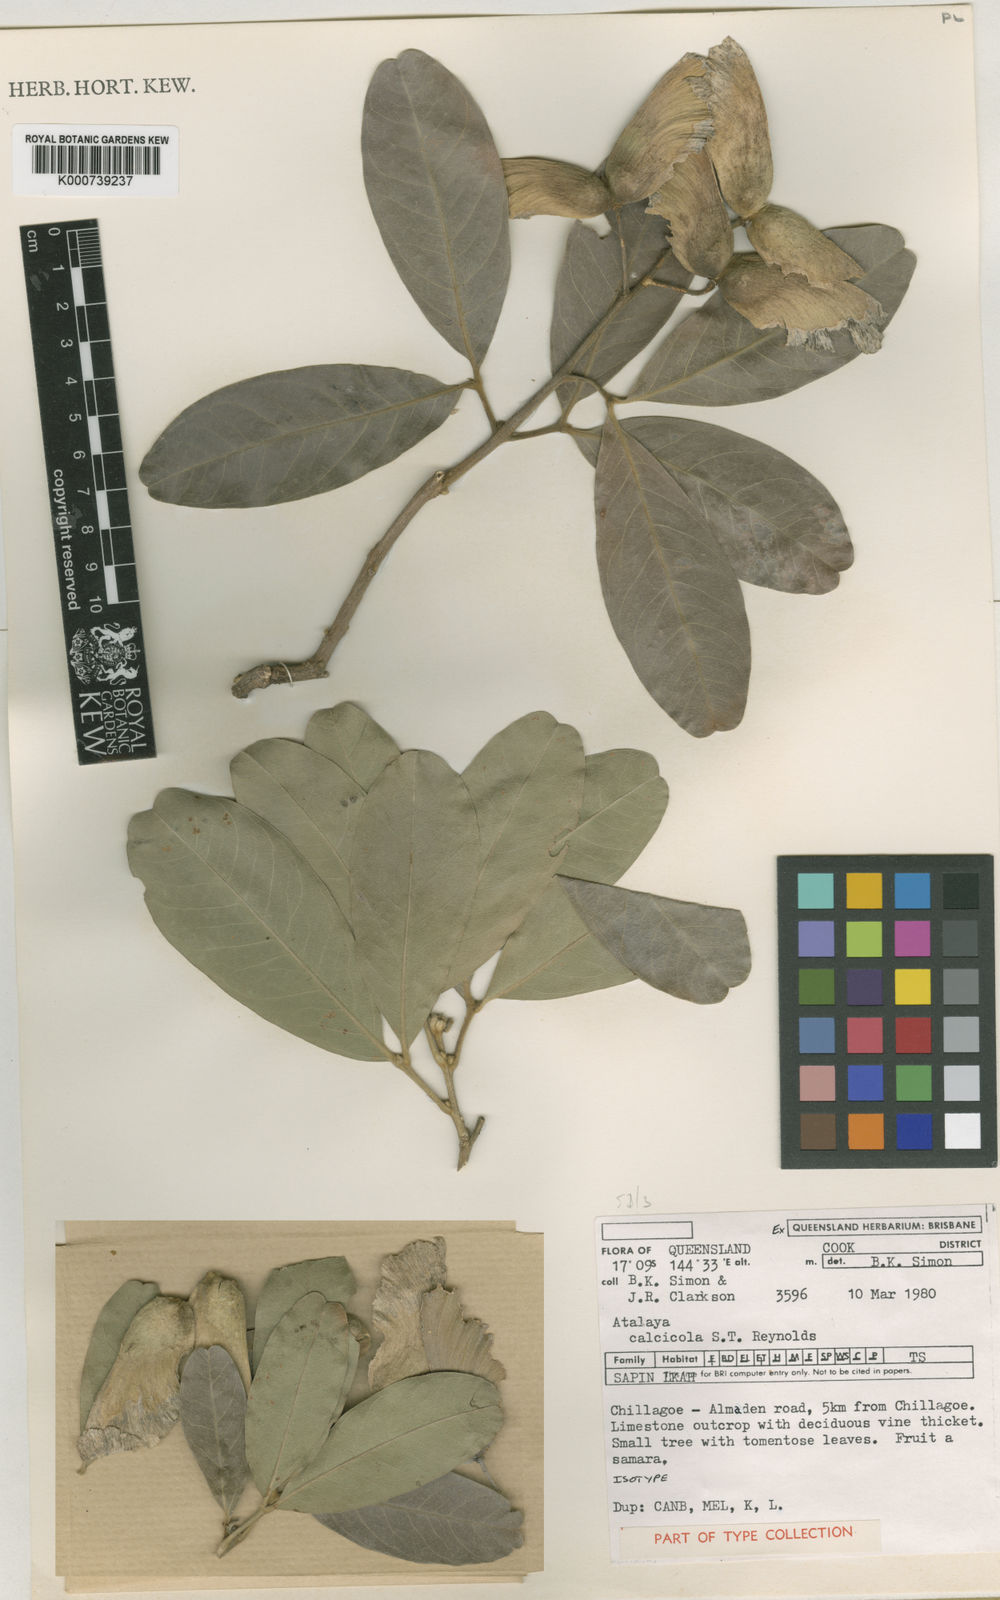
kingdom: Plantae
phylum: Tracheophyta
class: Magnoliopsida
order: Sapindales
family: Sapindaceae
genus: Atalaya
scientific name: Atalaya calcicola
